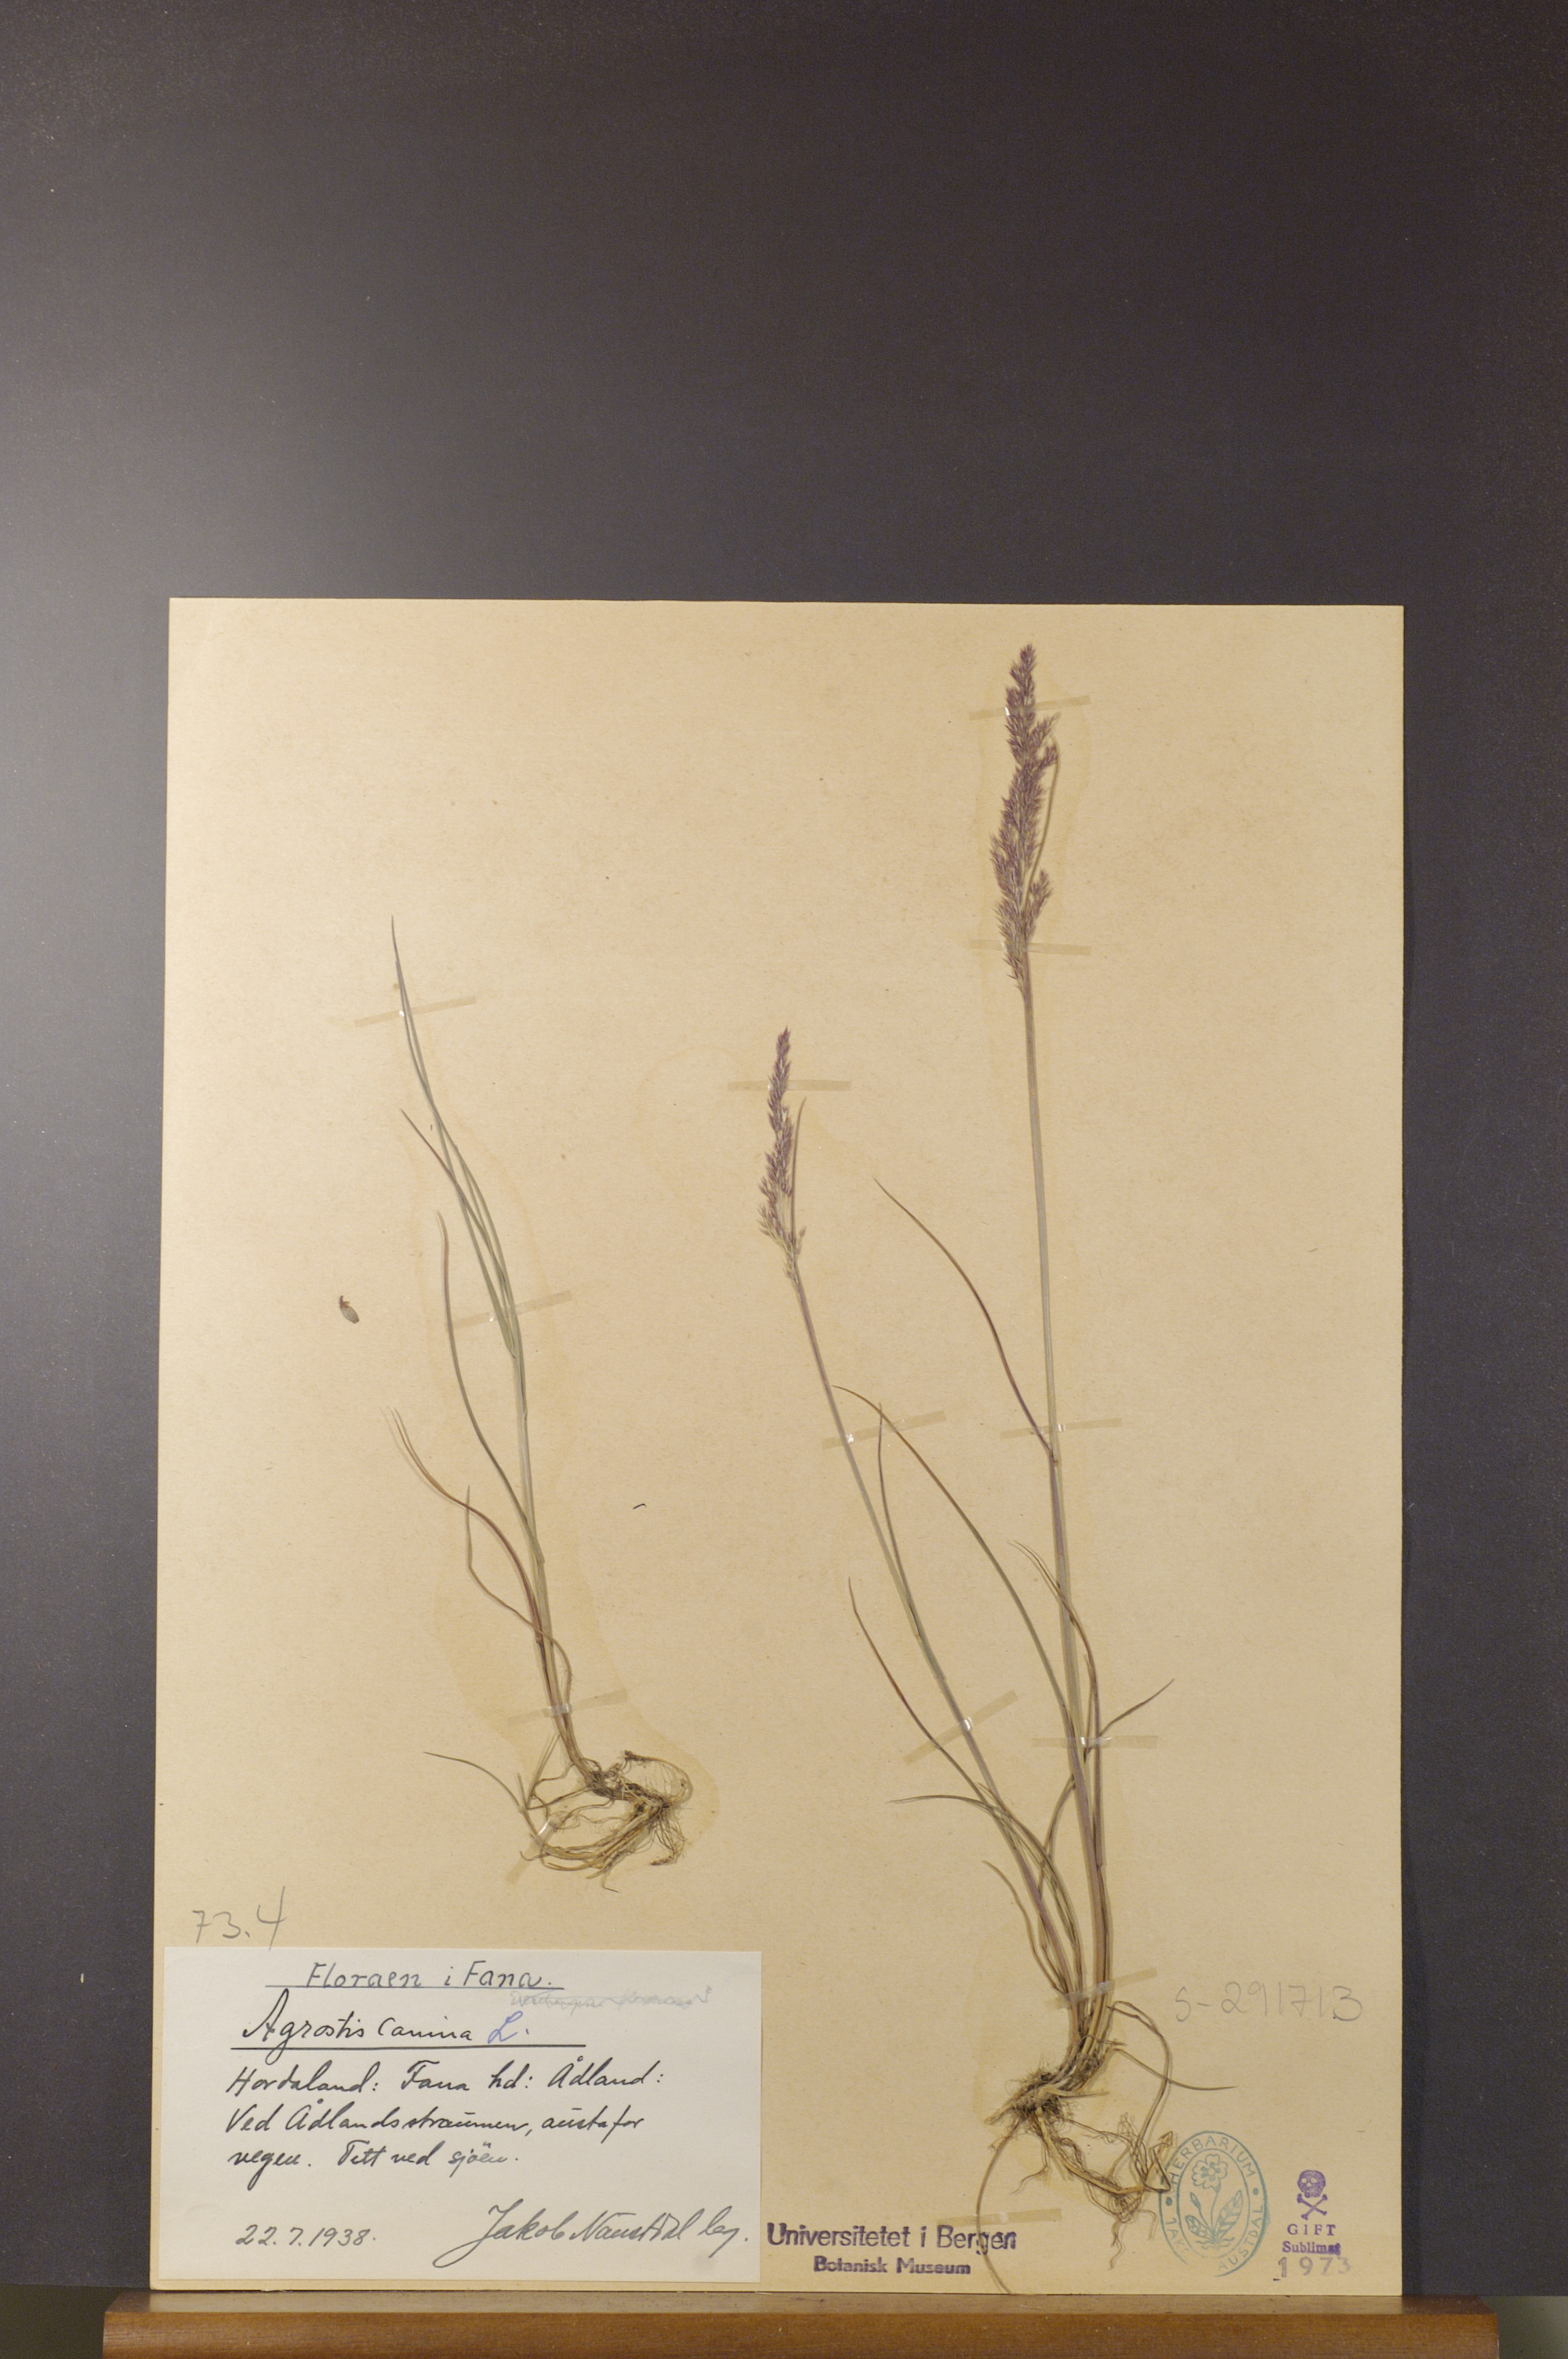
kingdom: Plantae
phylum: Tracheophyta
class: Liliopsida
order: Poales
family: Poaceae
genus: Agrostis
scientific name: Agrostis canina
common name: Velvet bent
